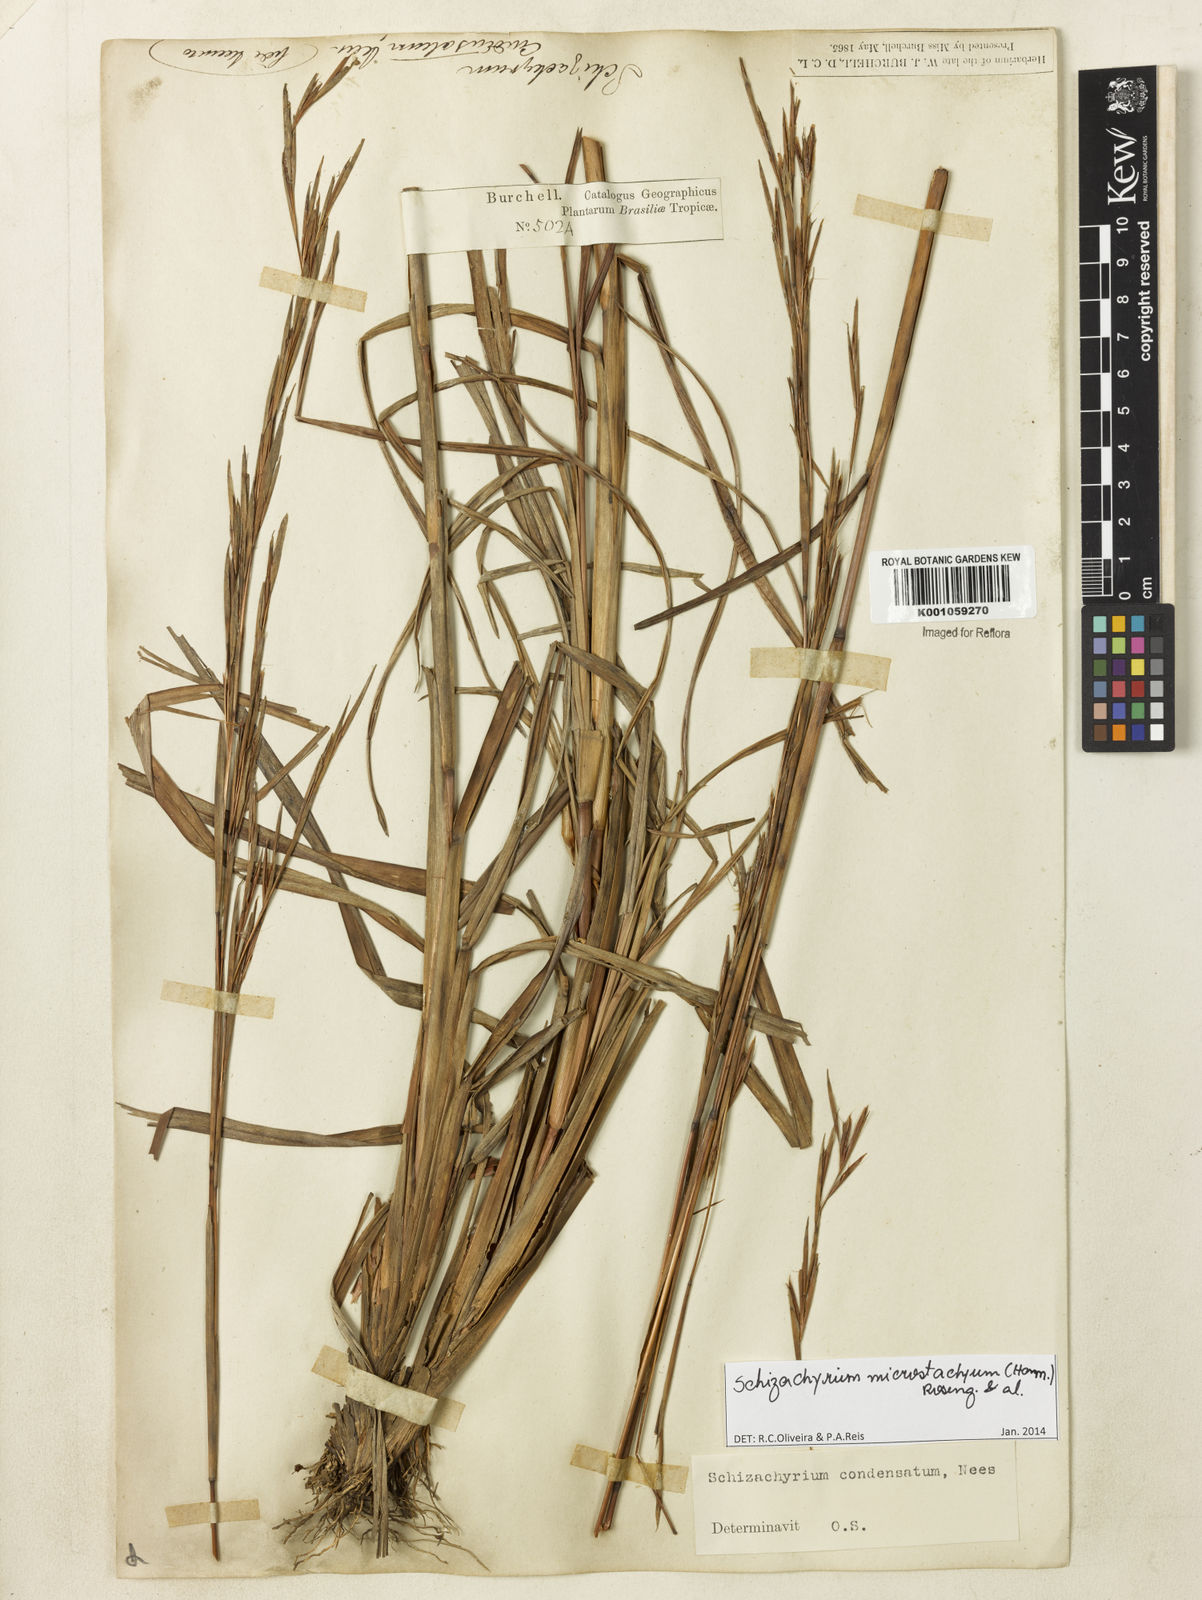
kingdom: Plantae
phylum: Tracheophyta
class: Liliopsida
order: Poales
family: Poaceae
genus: Schizachyrium
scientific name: Schizachyrium
